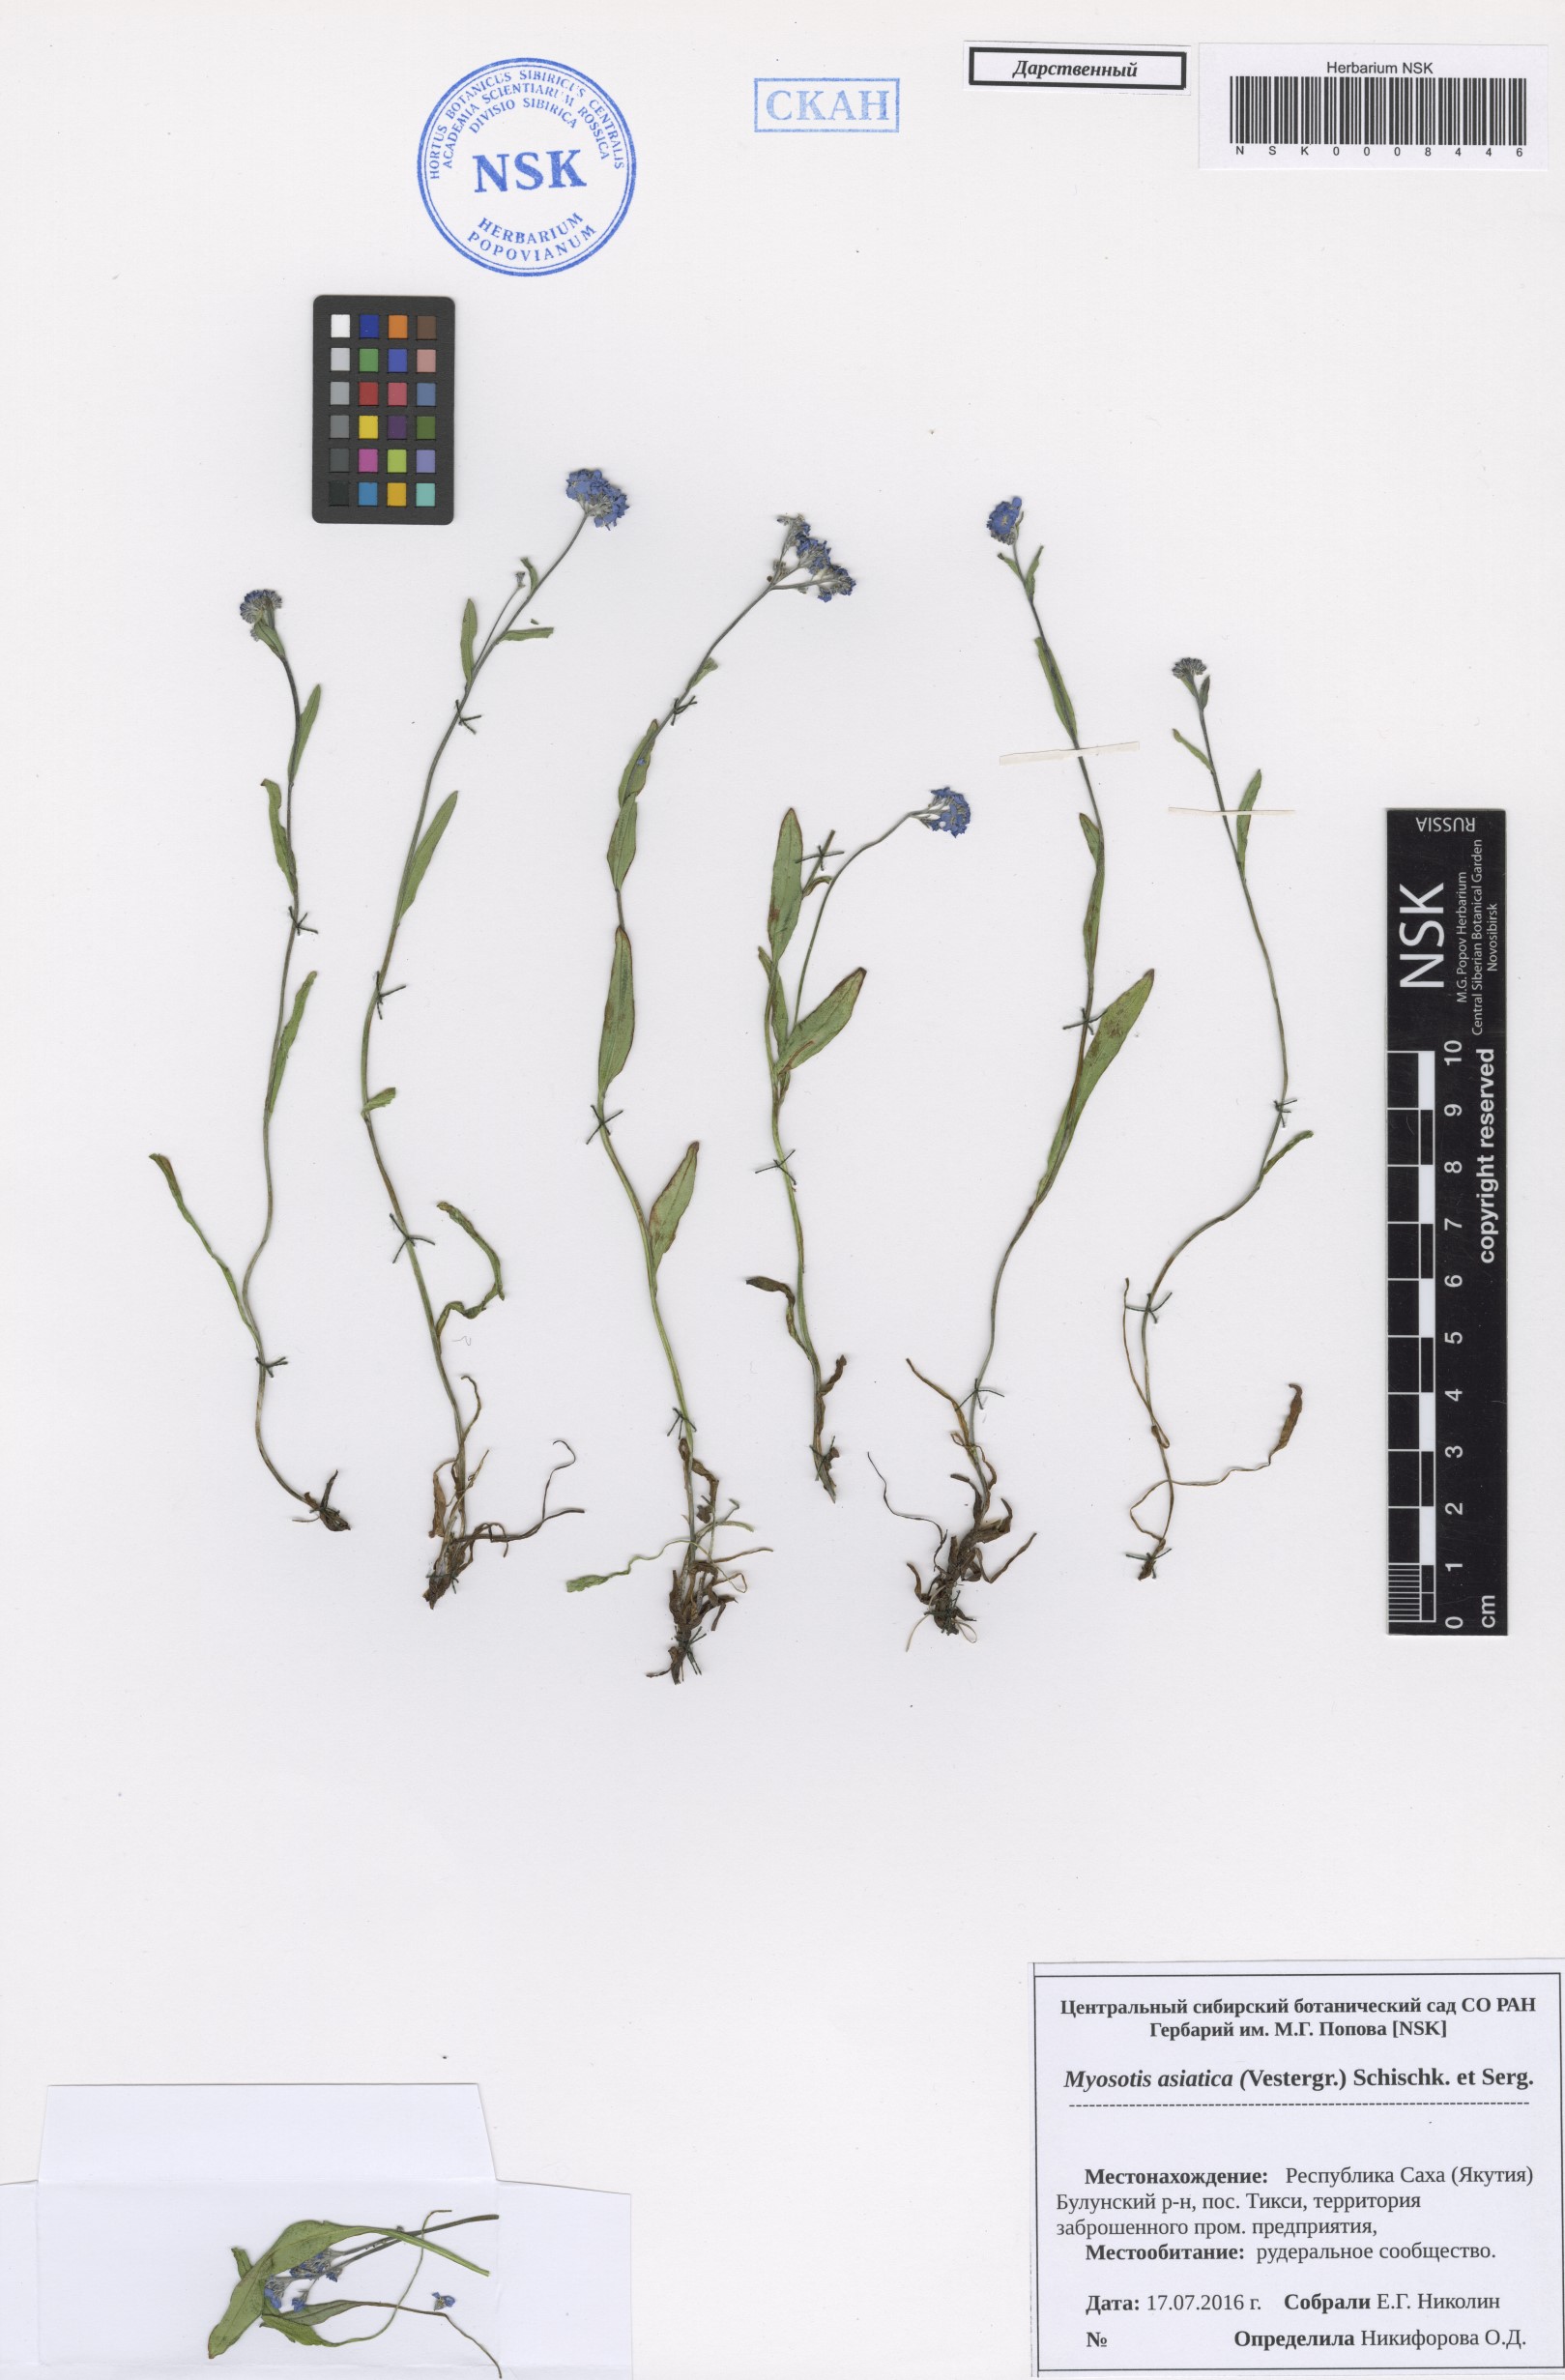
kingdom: Plantae
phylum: Tracheophyta
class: Magnoliopsida
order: Boraginales
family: Boraginaceae
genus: Myosotis
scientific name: Myosotis asiatica
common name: Asian forget-me-not
